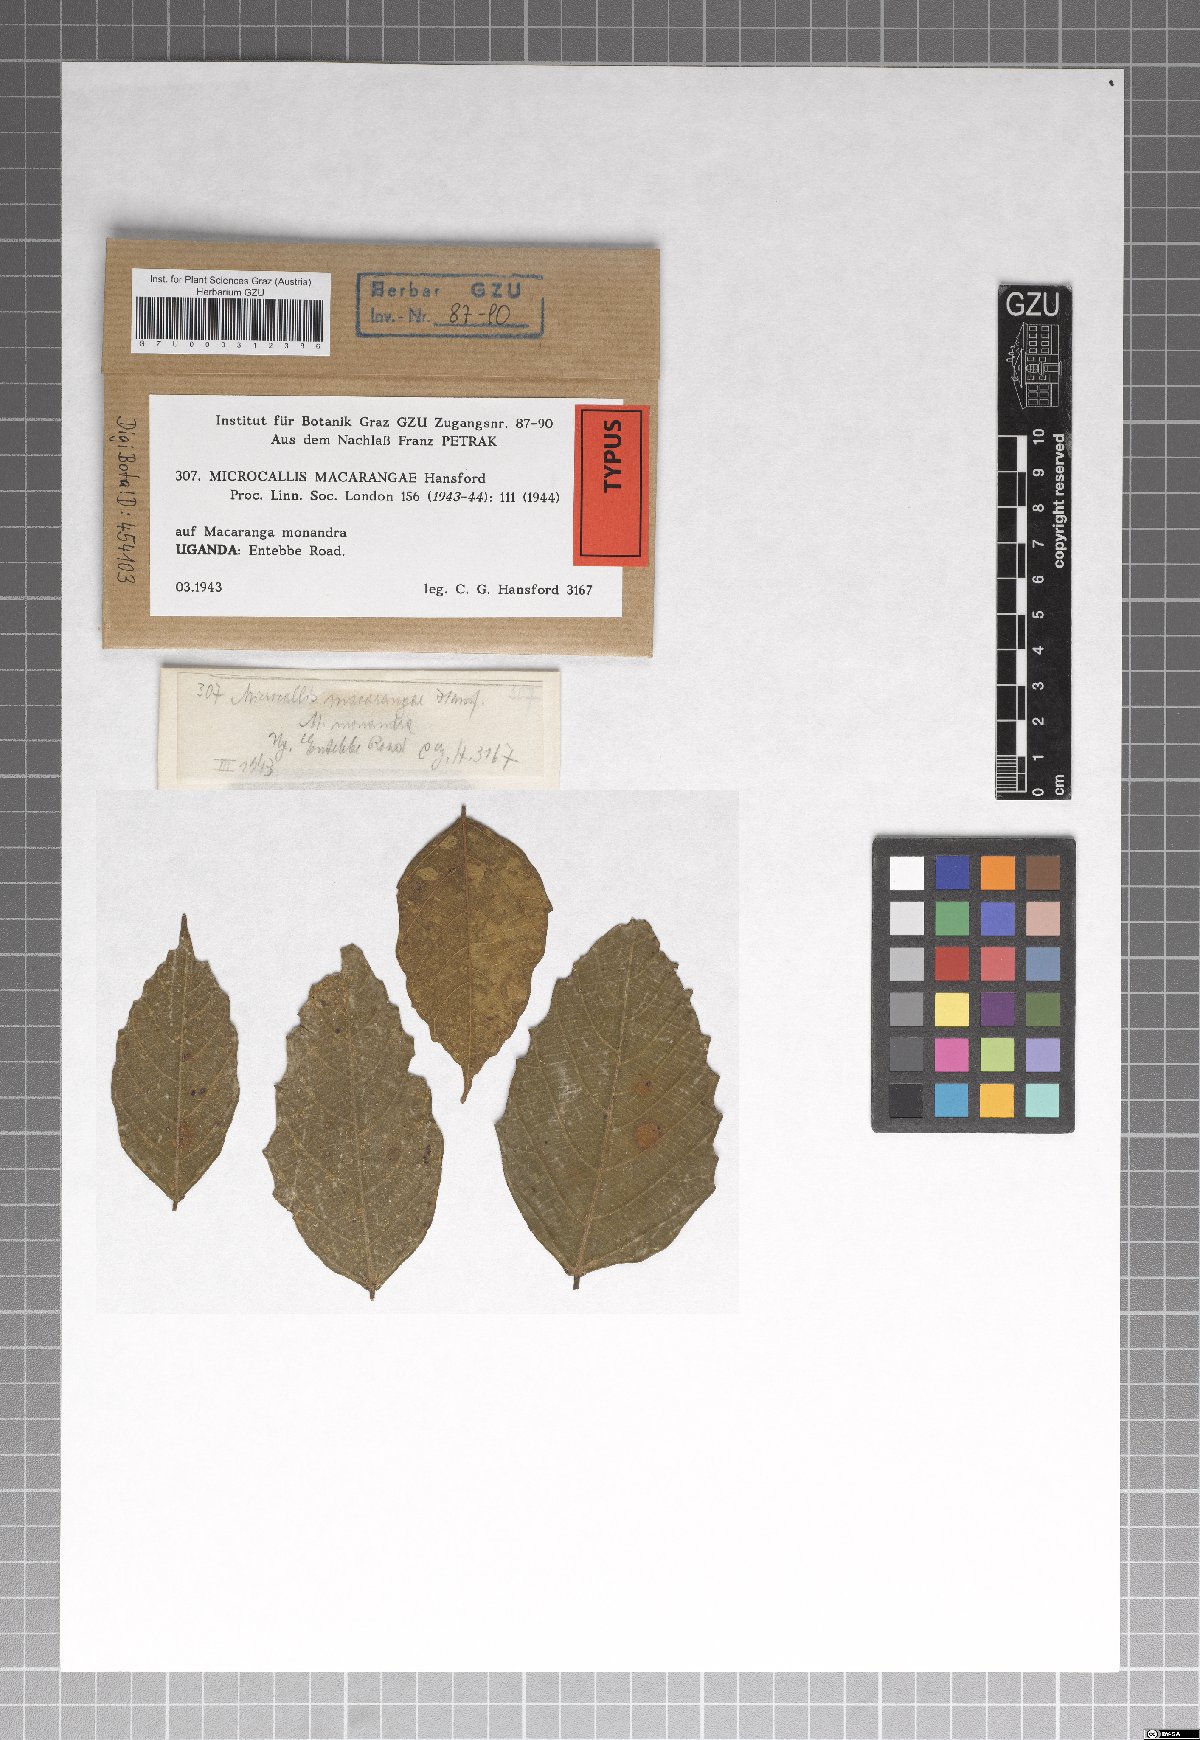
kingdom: Fungi
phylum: Ascomycota
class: Dothideomycetes
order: Microthyriales
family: Micropeltidaceae
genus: Microcallis
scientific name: Microcallis macarangae
